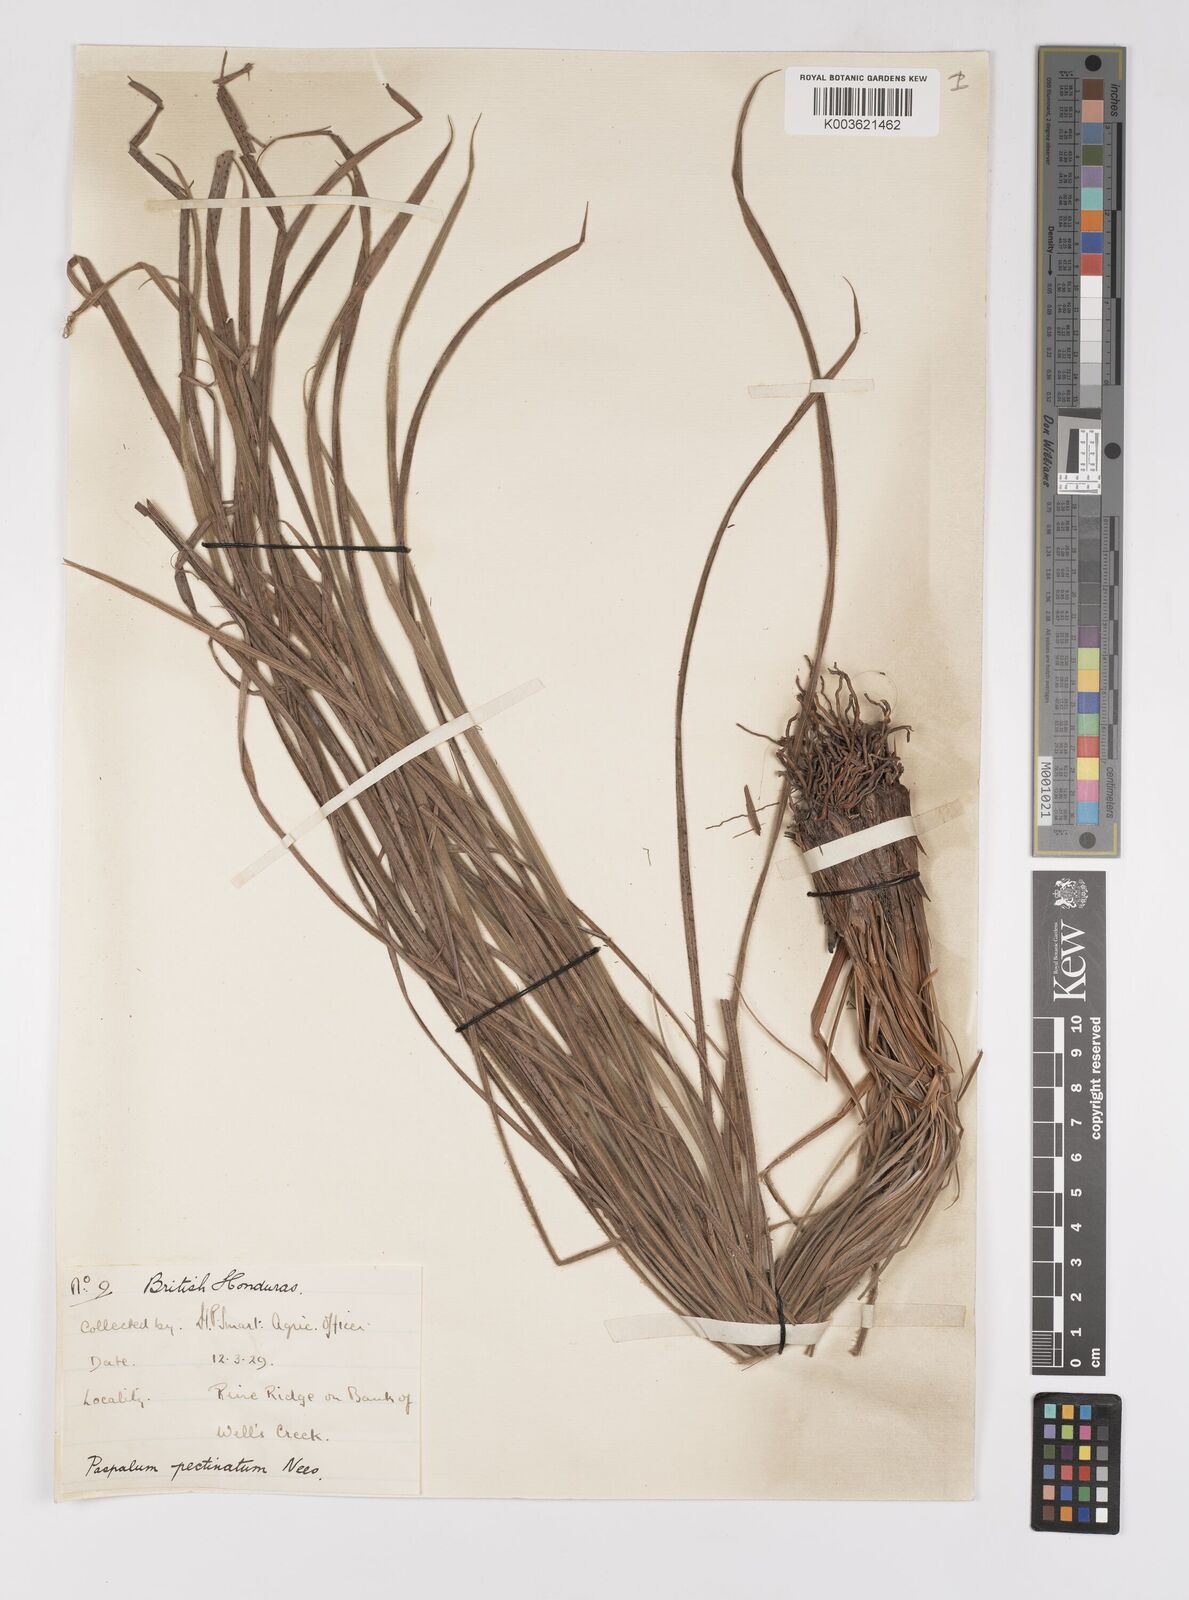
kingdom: Plantae
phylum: Tracheophyta
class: Liliopsida
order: Poales
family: Poaceae
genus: Paspalum
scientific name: Paspalum pectinatum
